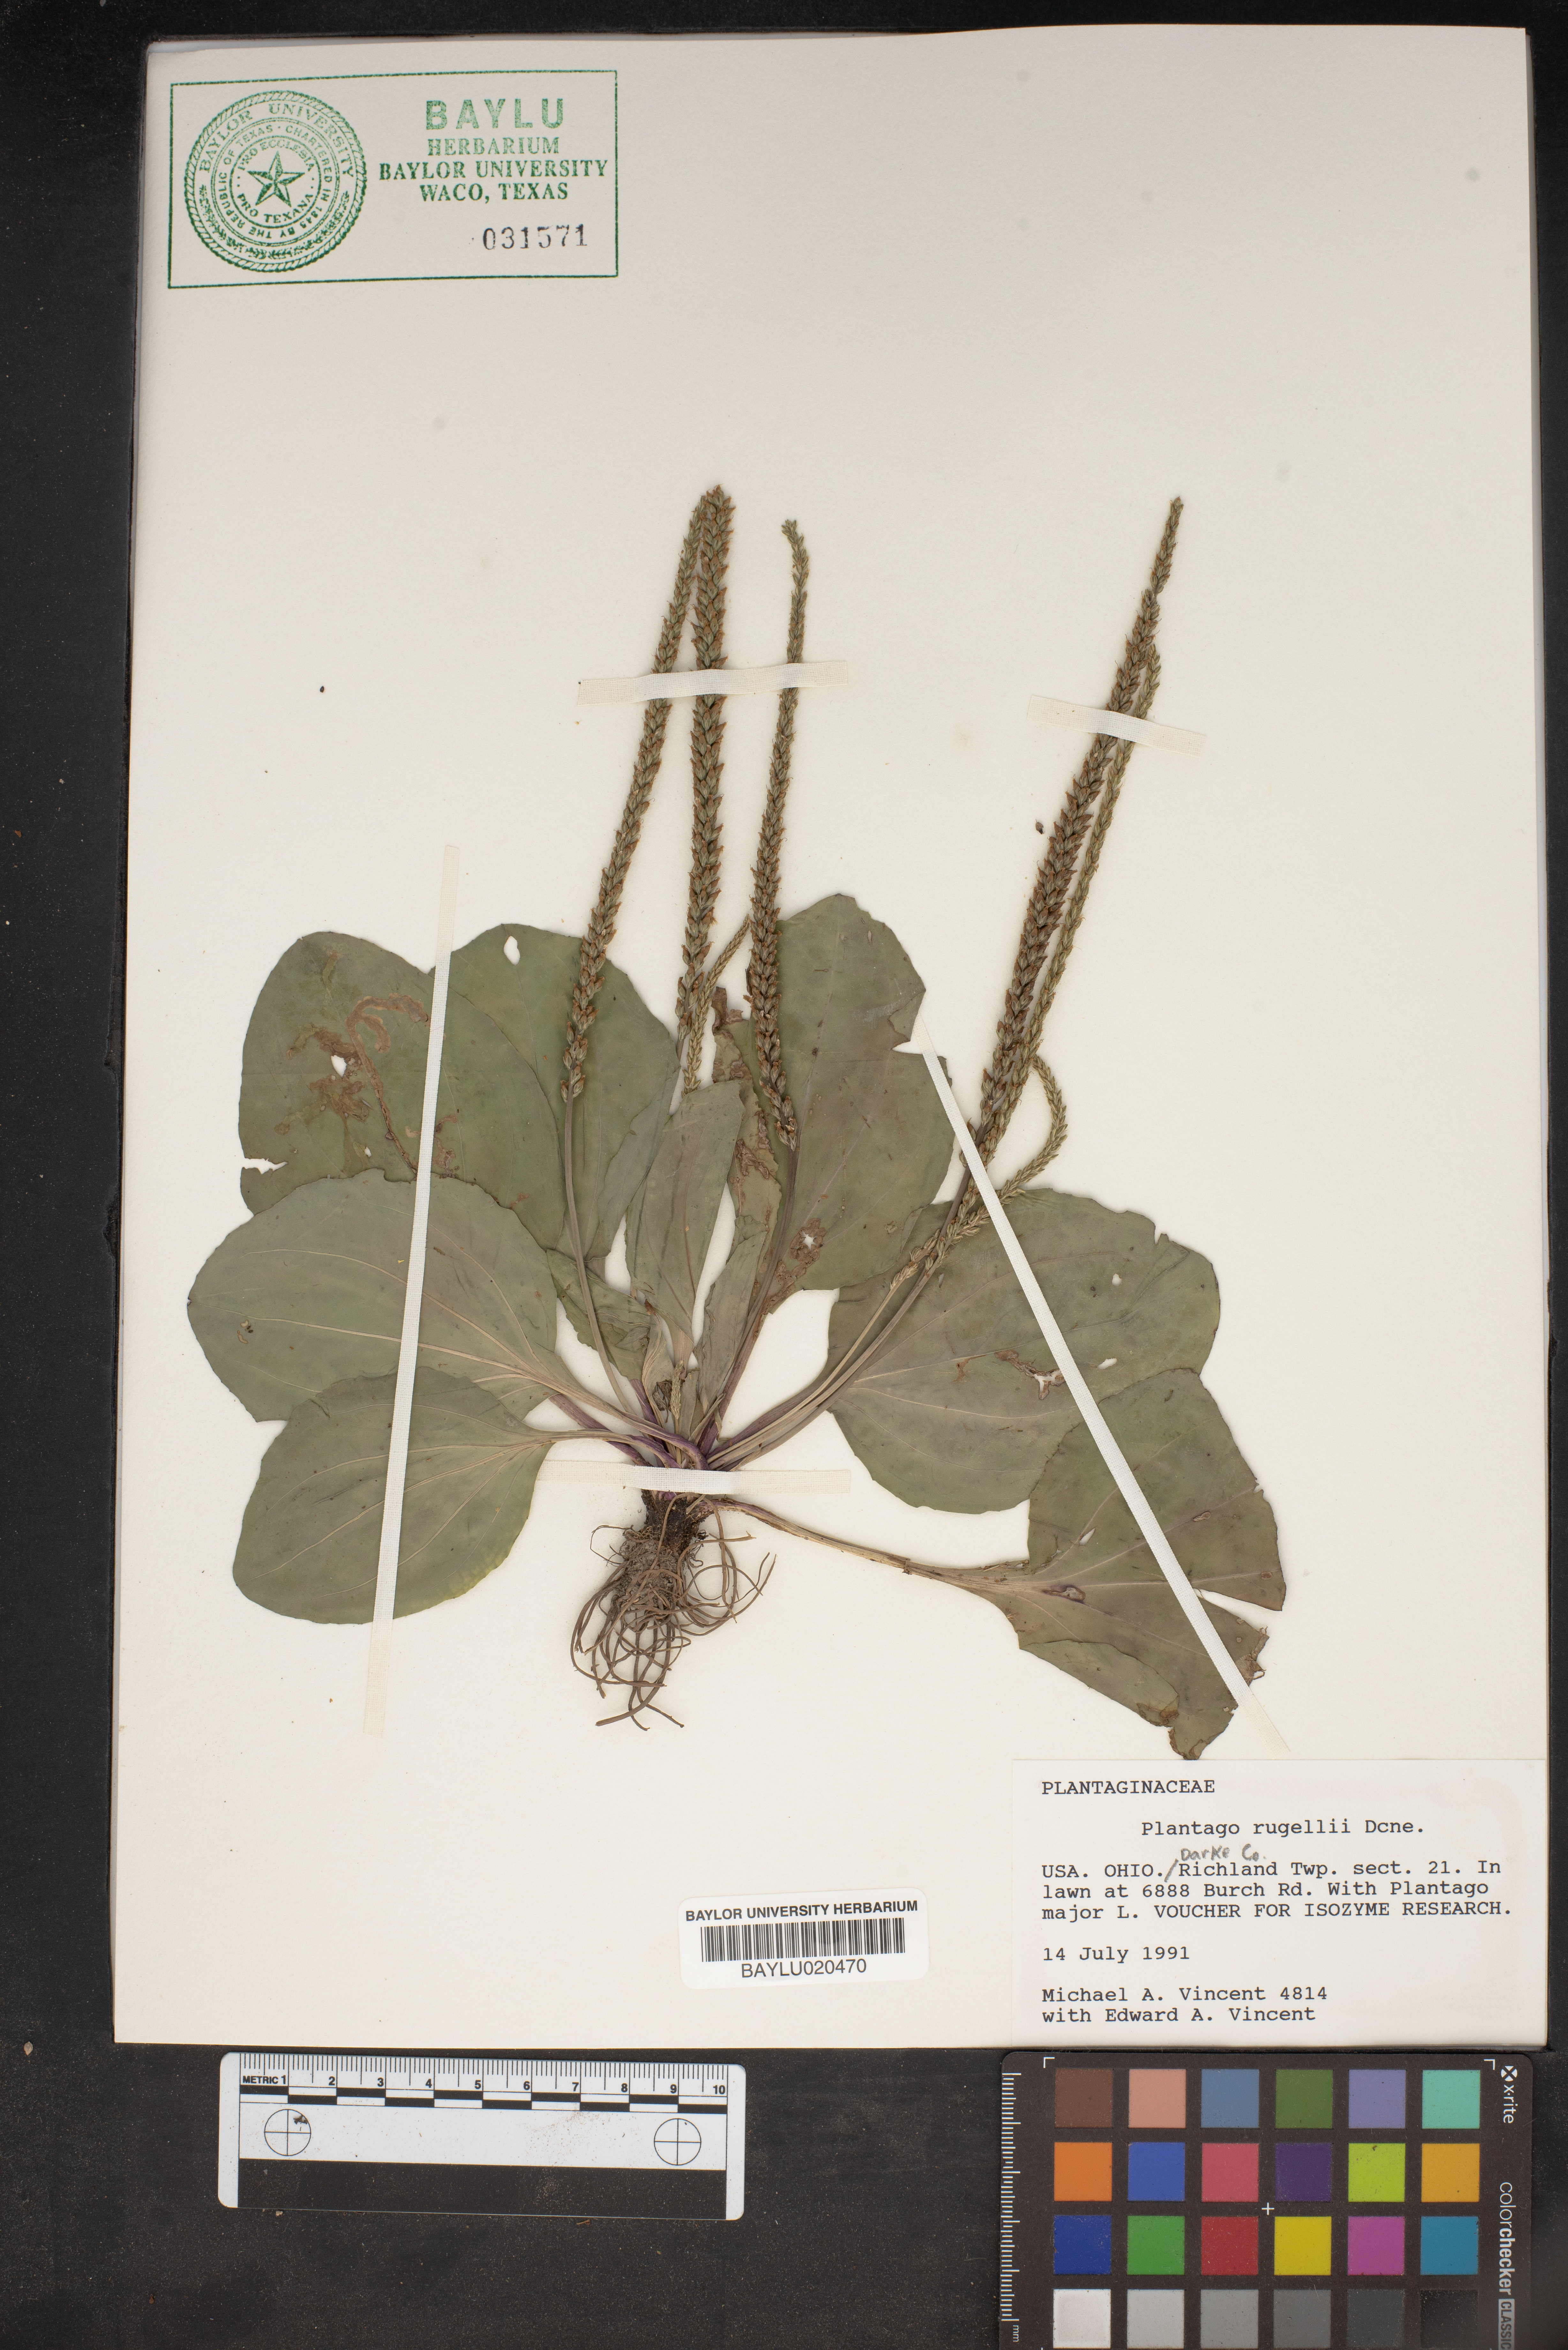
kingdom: Plantae
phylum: Tracheophyta
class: Magnoliopsida
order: Lamiales
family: Plantaginaceae
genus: Plantago
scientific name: Plantago rugelii
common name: American plantain
